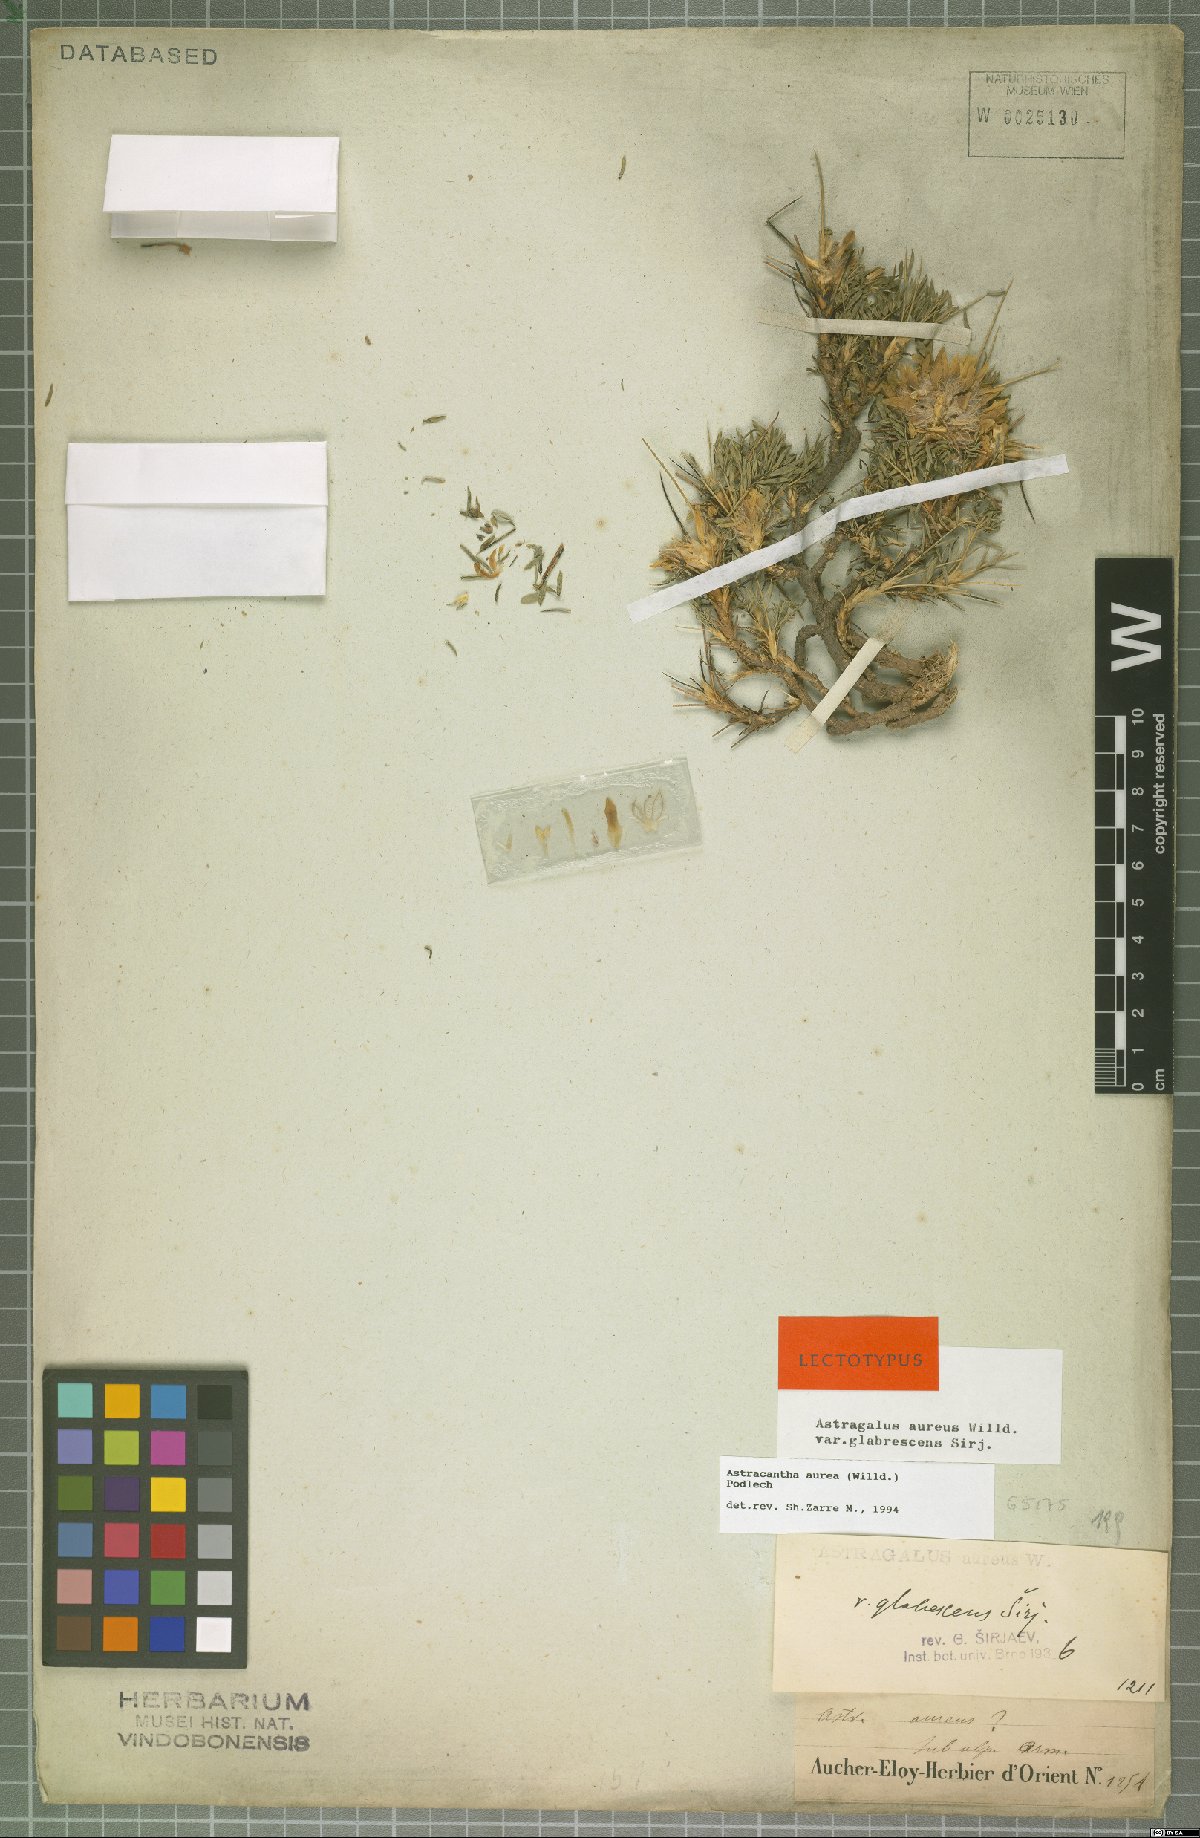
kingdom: Plantae
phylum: Tracheophyta
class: Magnoliopsida
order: Fabales
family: Fabaceae
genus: Astragalus
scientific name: Astragalus aureus
